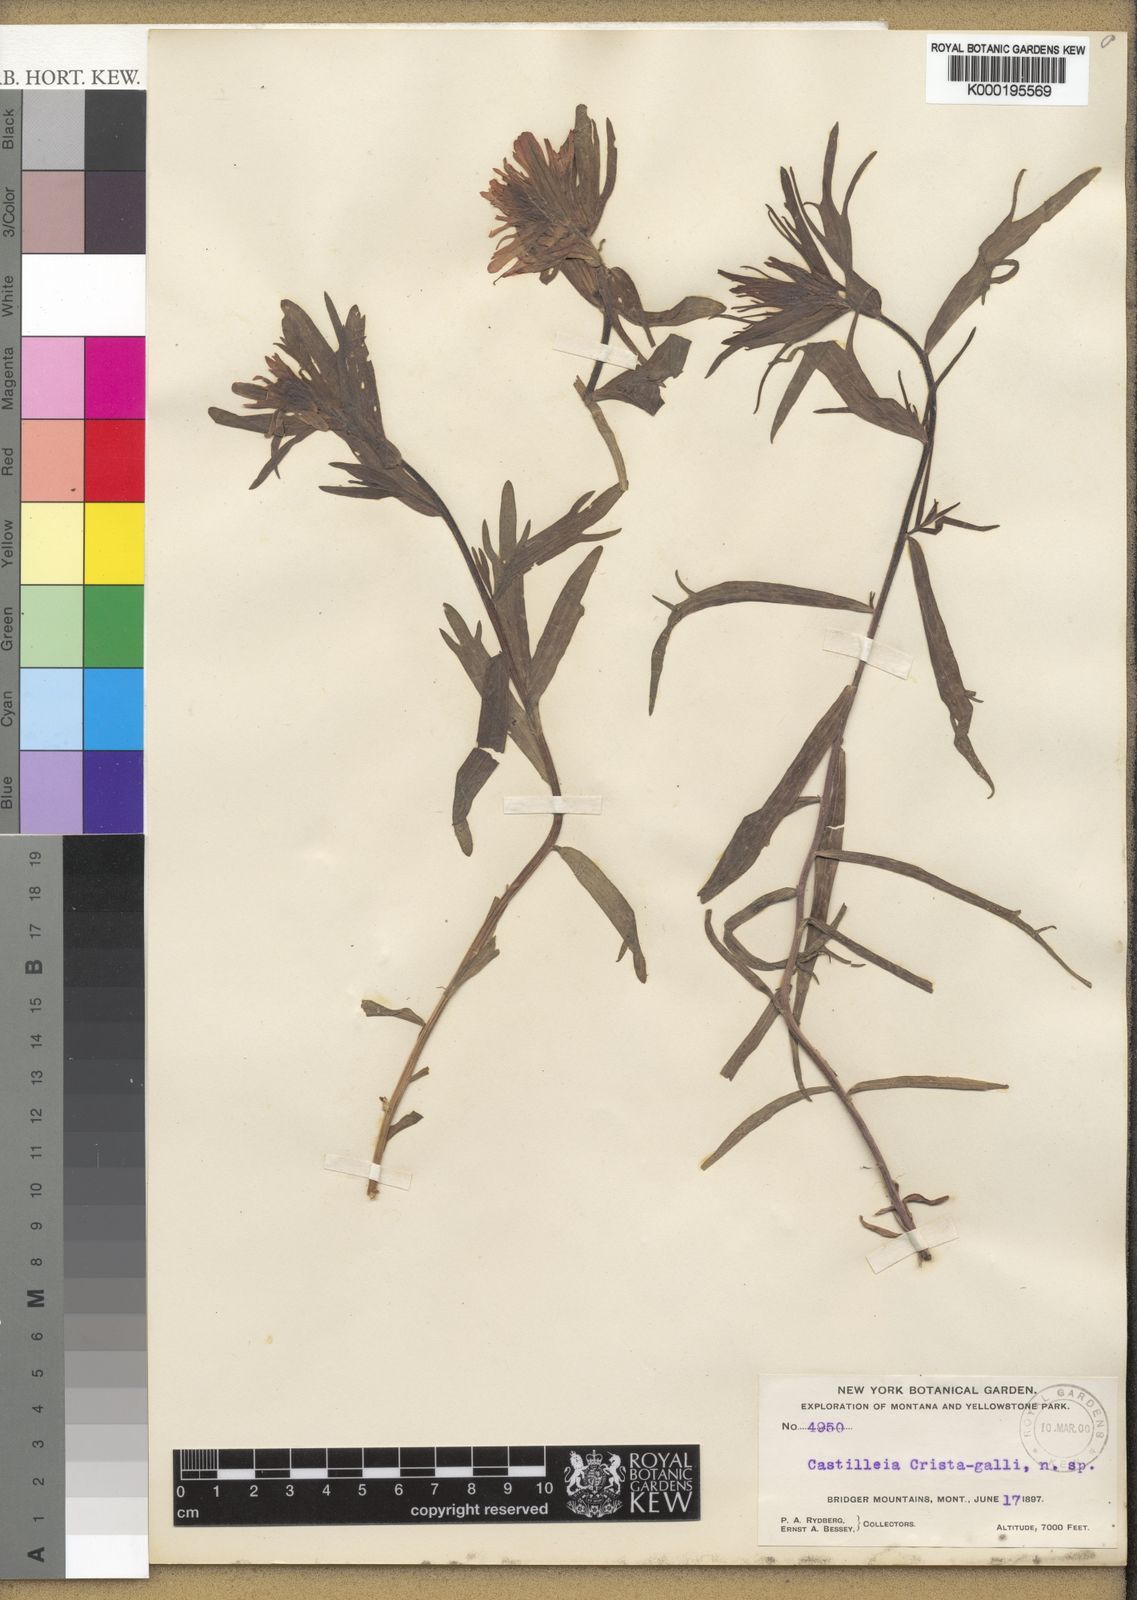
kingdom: Plantae
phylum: Tracheophyta
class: Magnoliopsida
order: Lamiales
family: Orobanchaceae
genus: Castilleja
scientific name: Castilleja crista-galli
